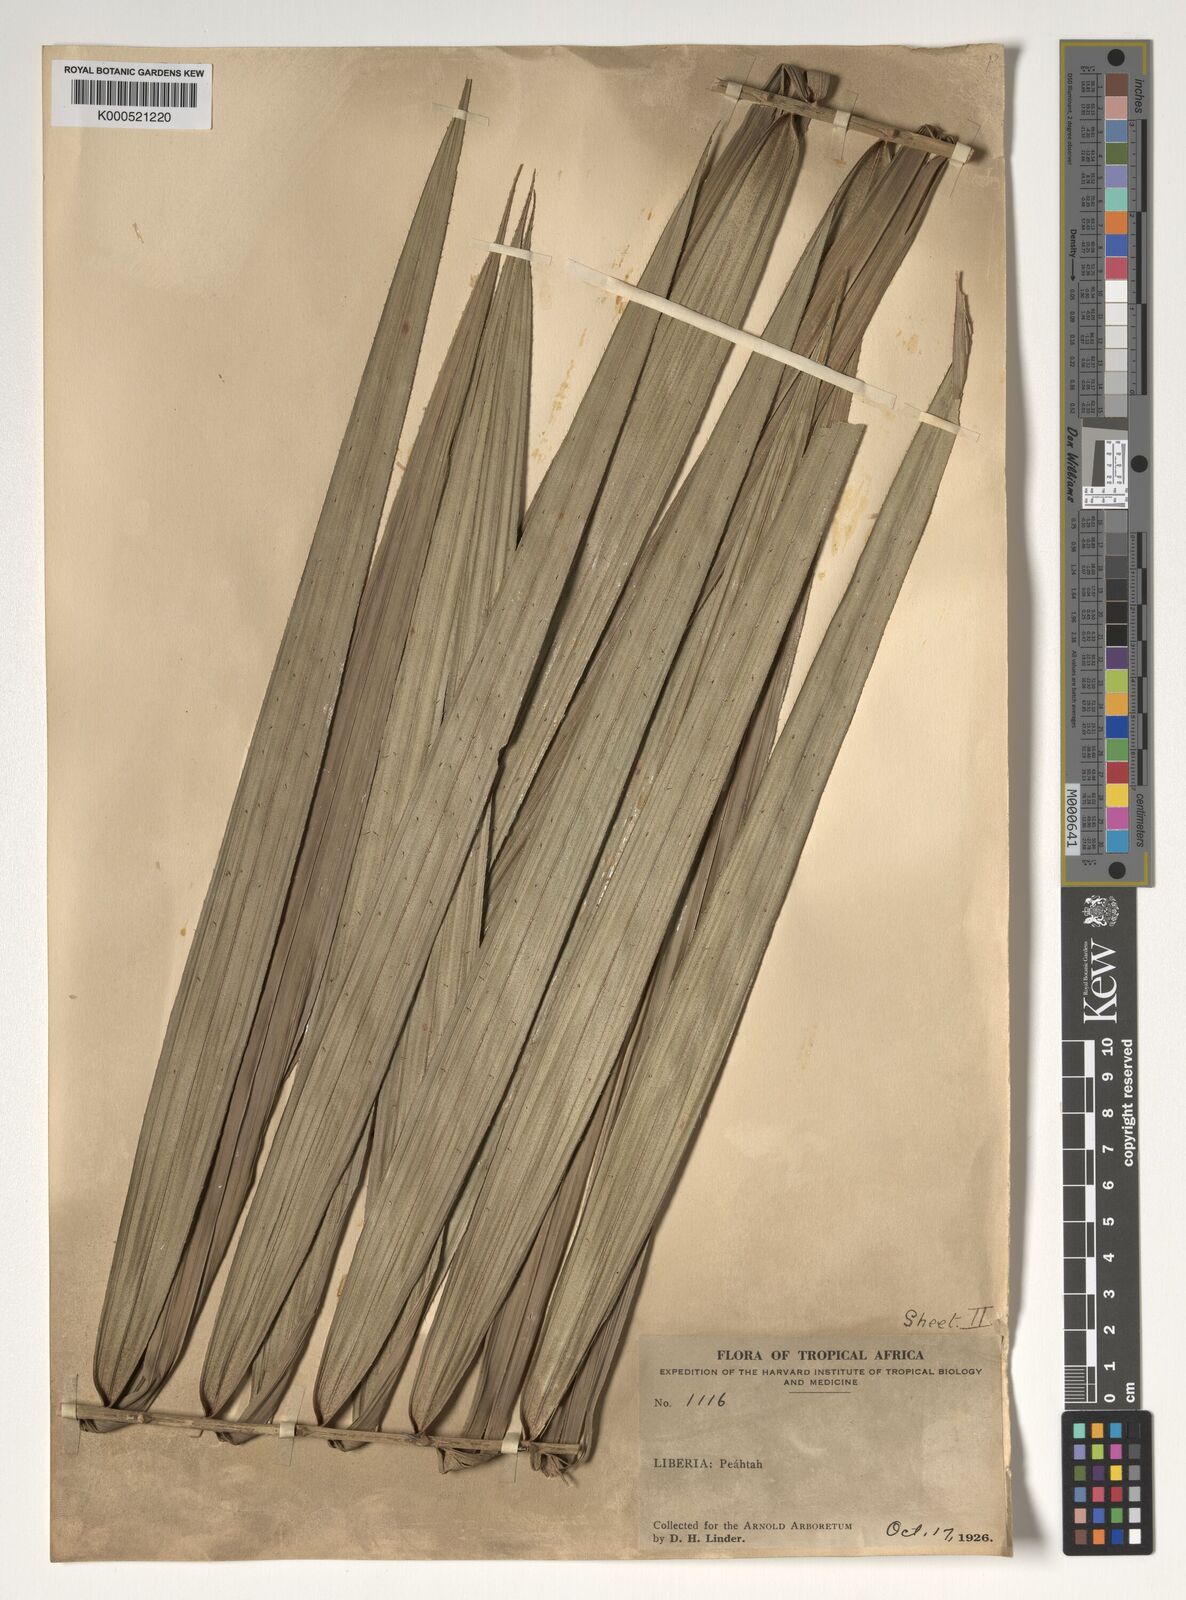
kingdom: Plantae
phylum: Tracheophyta
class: Liliopsida
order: Arecales
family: Arecaceae
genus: Calamus
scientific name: Calamus deerratus
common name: Rattan
